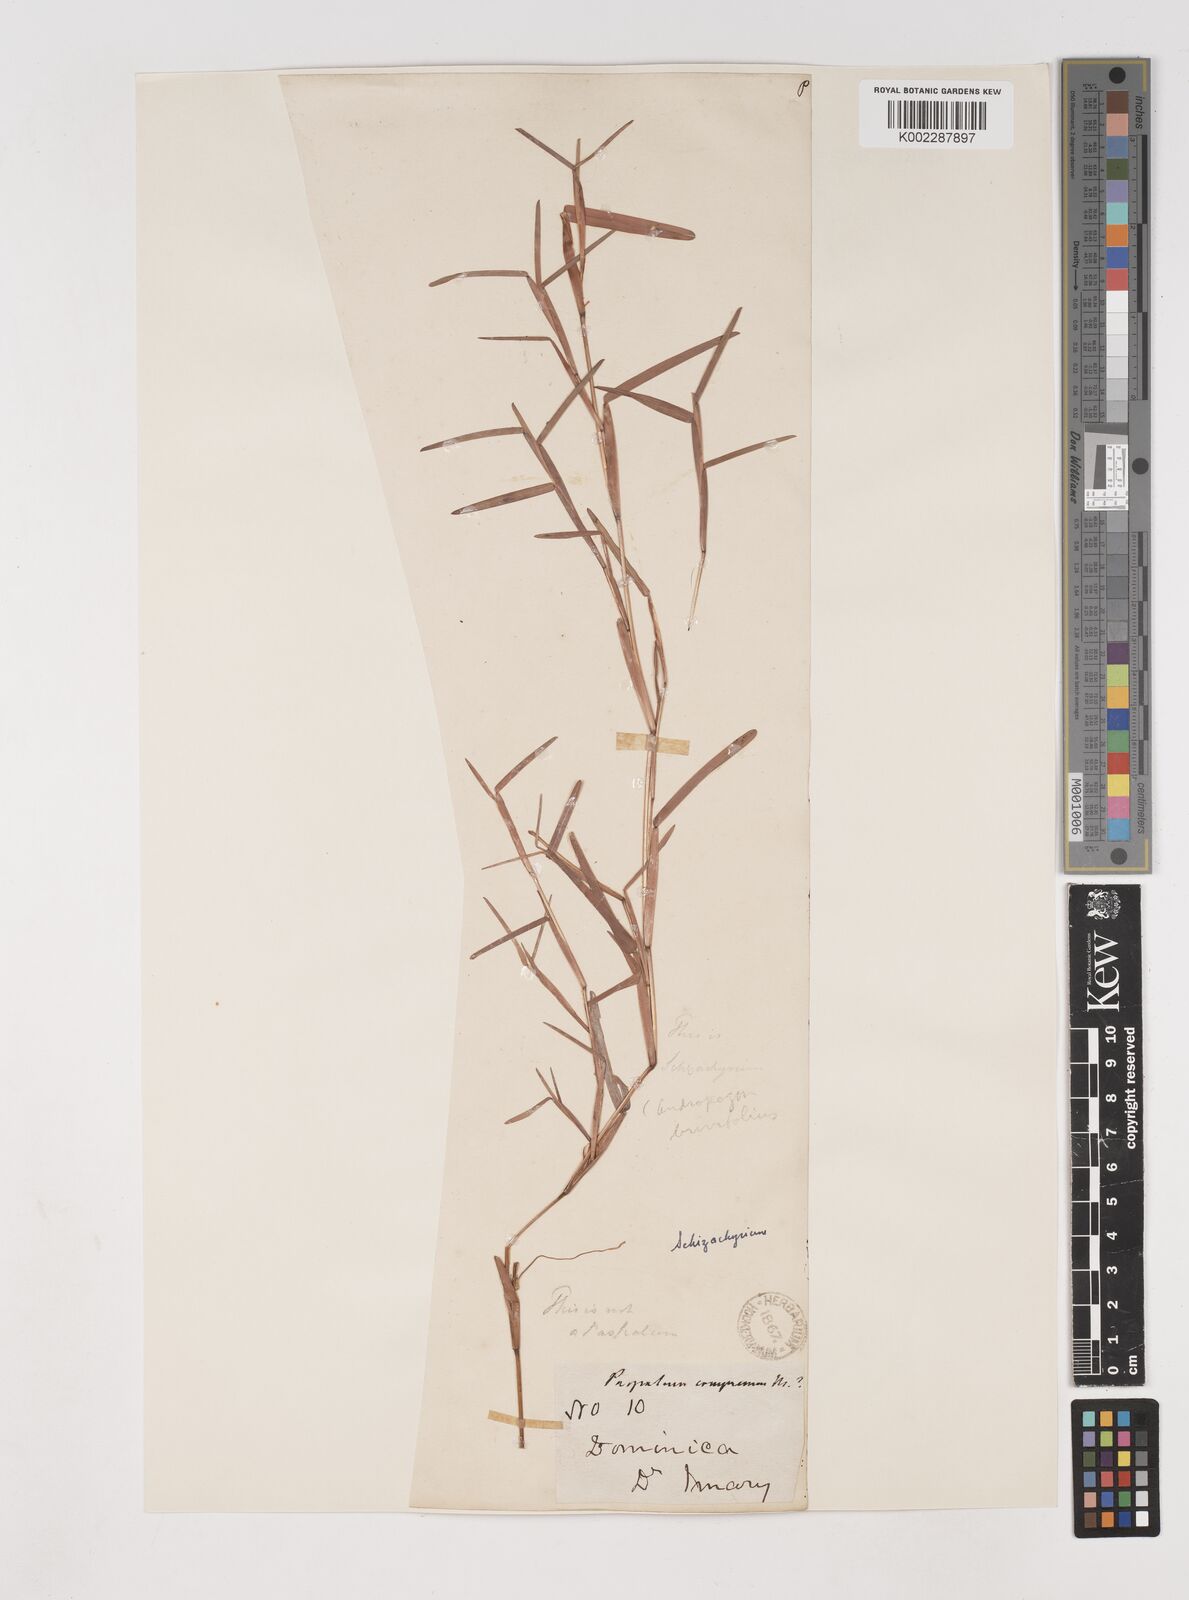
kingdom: Plantae
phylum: Tracheophyta
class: Liliopsida
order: Poales
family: Poaceae
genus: Schizachyrium
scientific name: Schizachyrium brevifolium
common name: Serillo dulce
